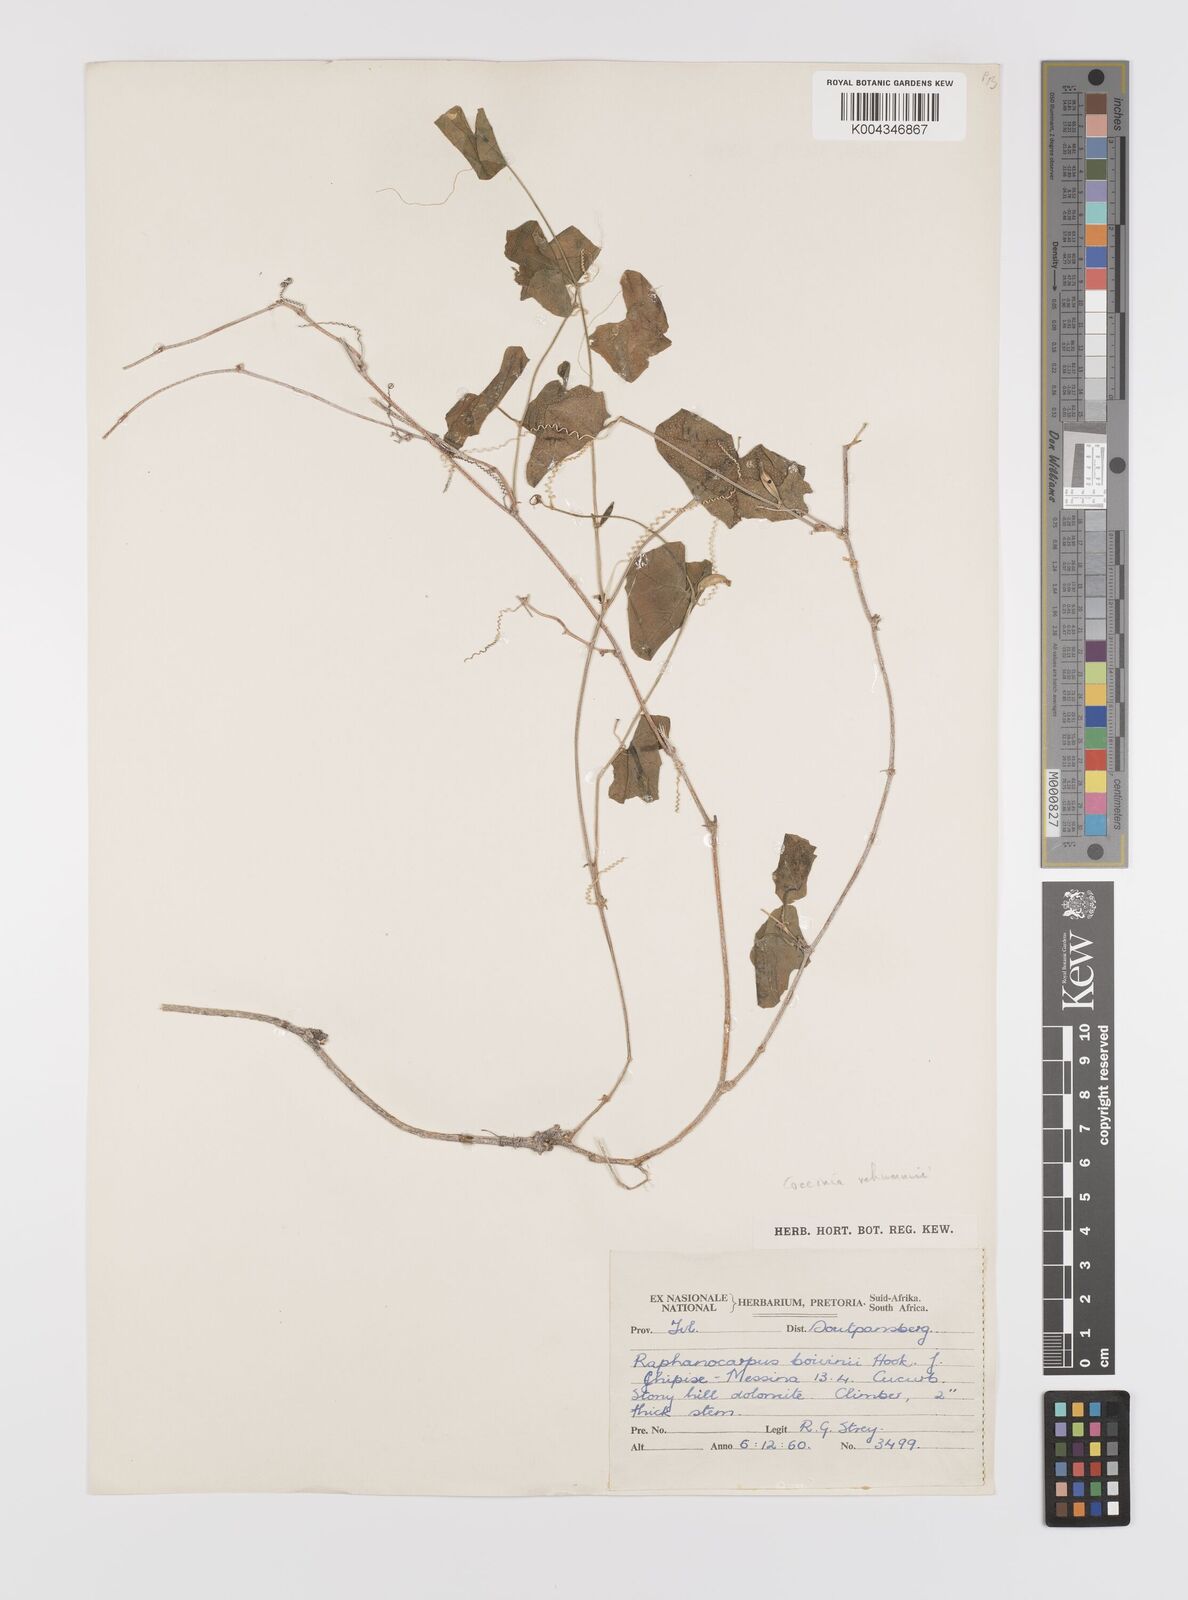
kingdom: Plantae
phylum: Tracheophyta
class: Magnoliopsida
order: Cucurbitales
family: Cucurbitaceae
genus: Coccinia
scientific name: Coccinia rehmannii
